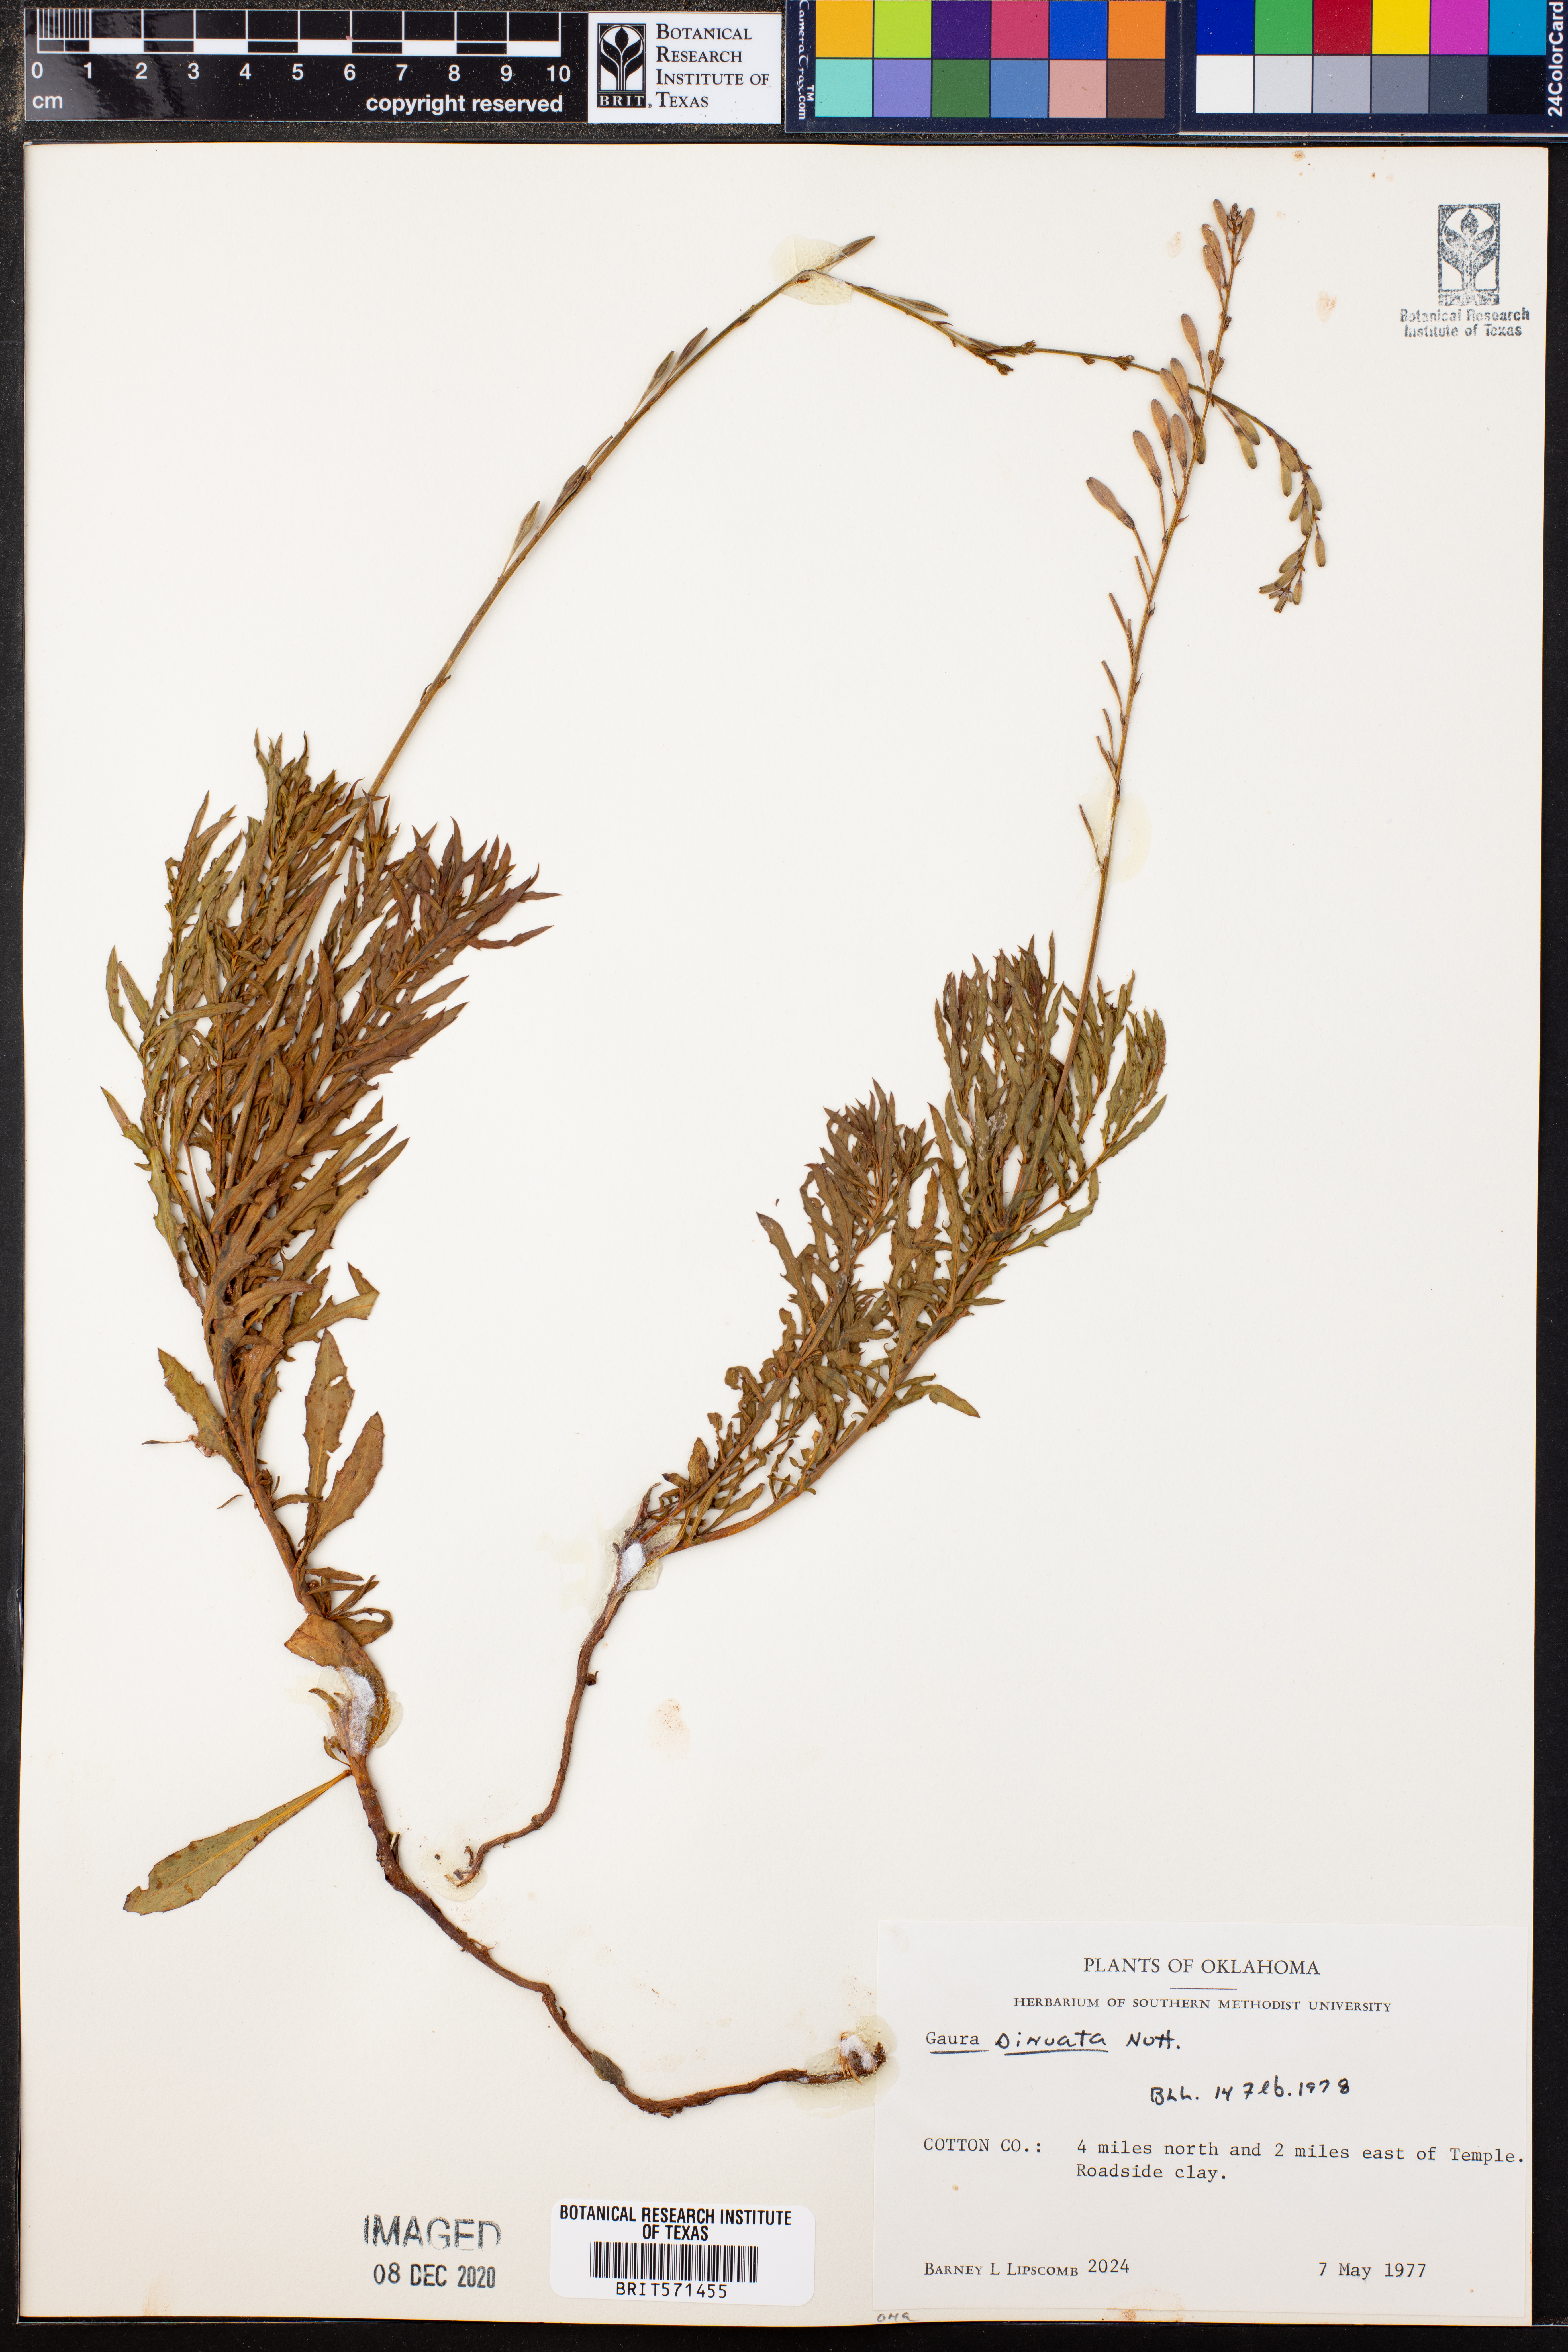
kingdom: Plantae
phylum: Tracheophyta
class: Magnoliopsida
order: Myrtales
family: Onagraceae
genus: Oenothera
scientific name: Oenothera sinuosa
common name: Wavyleaf beeblossom
